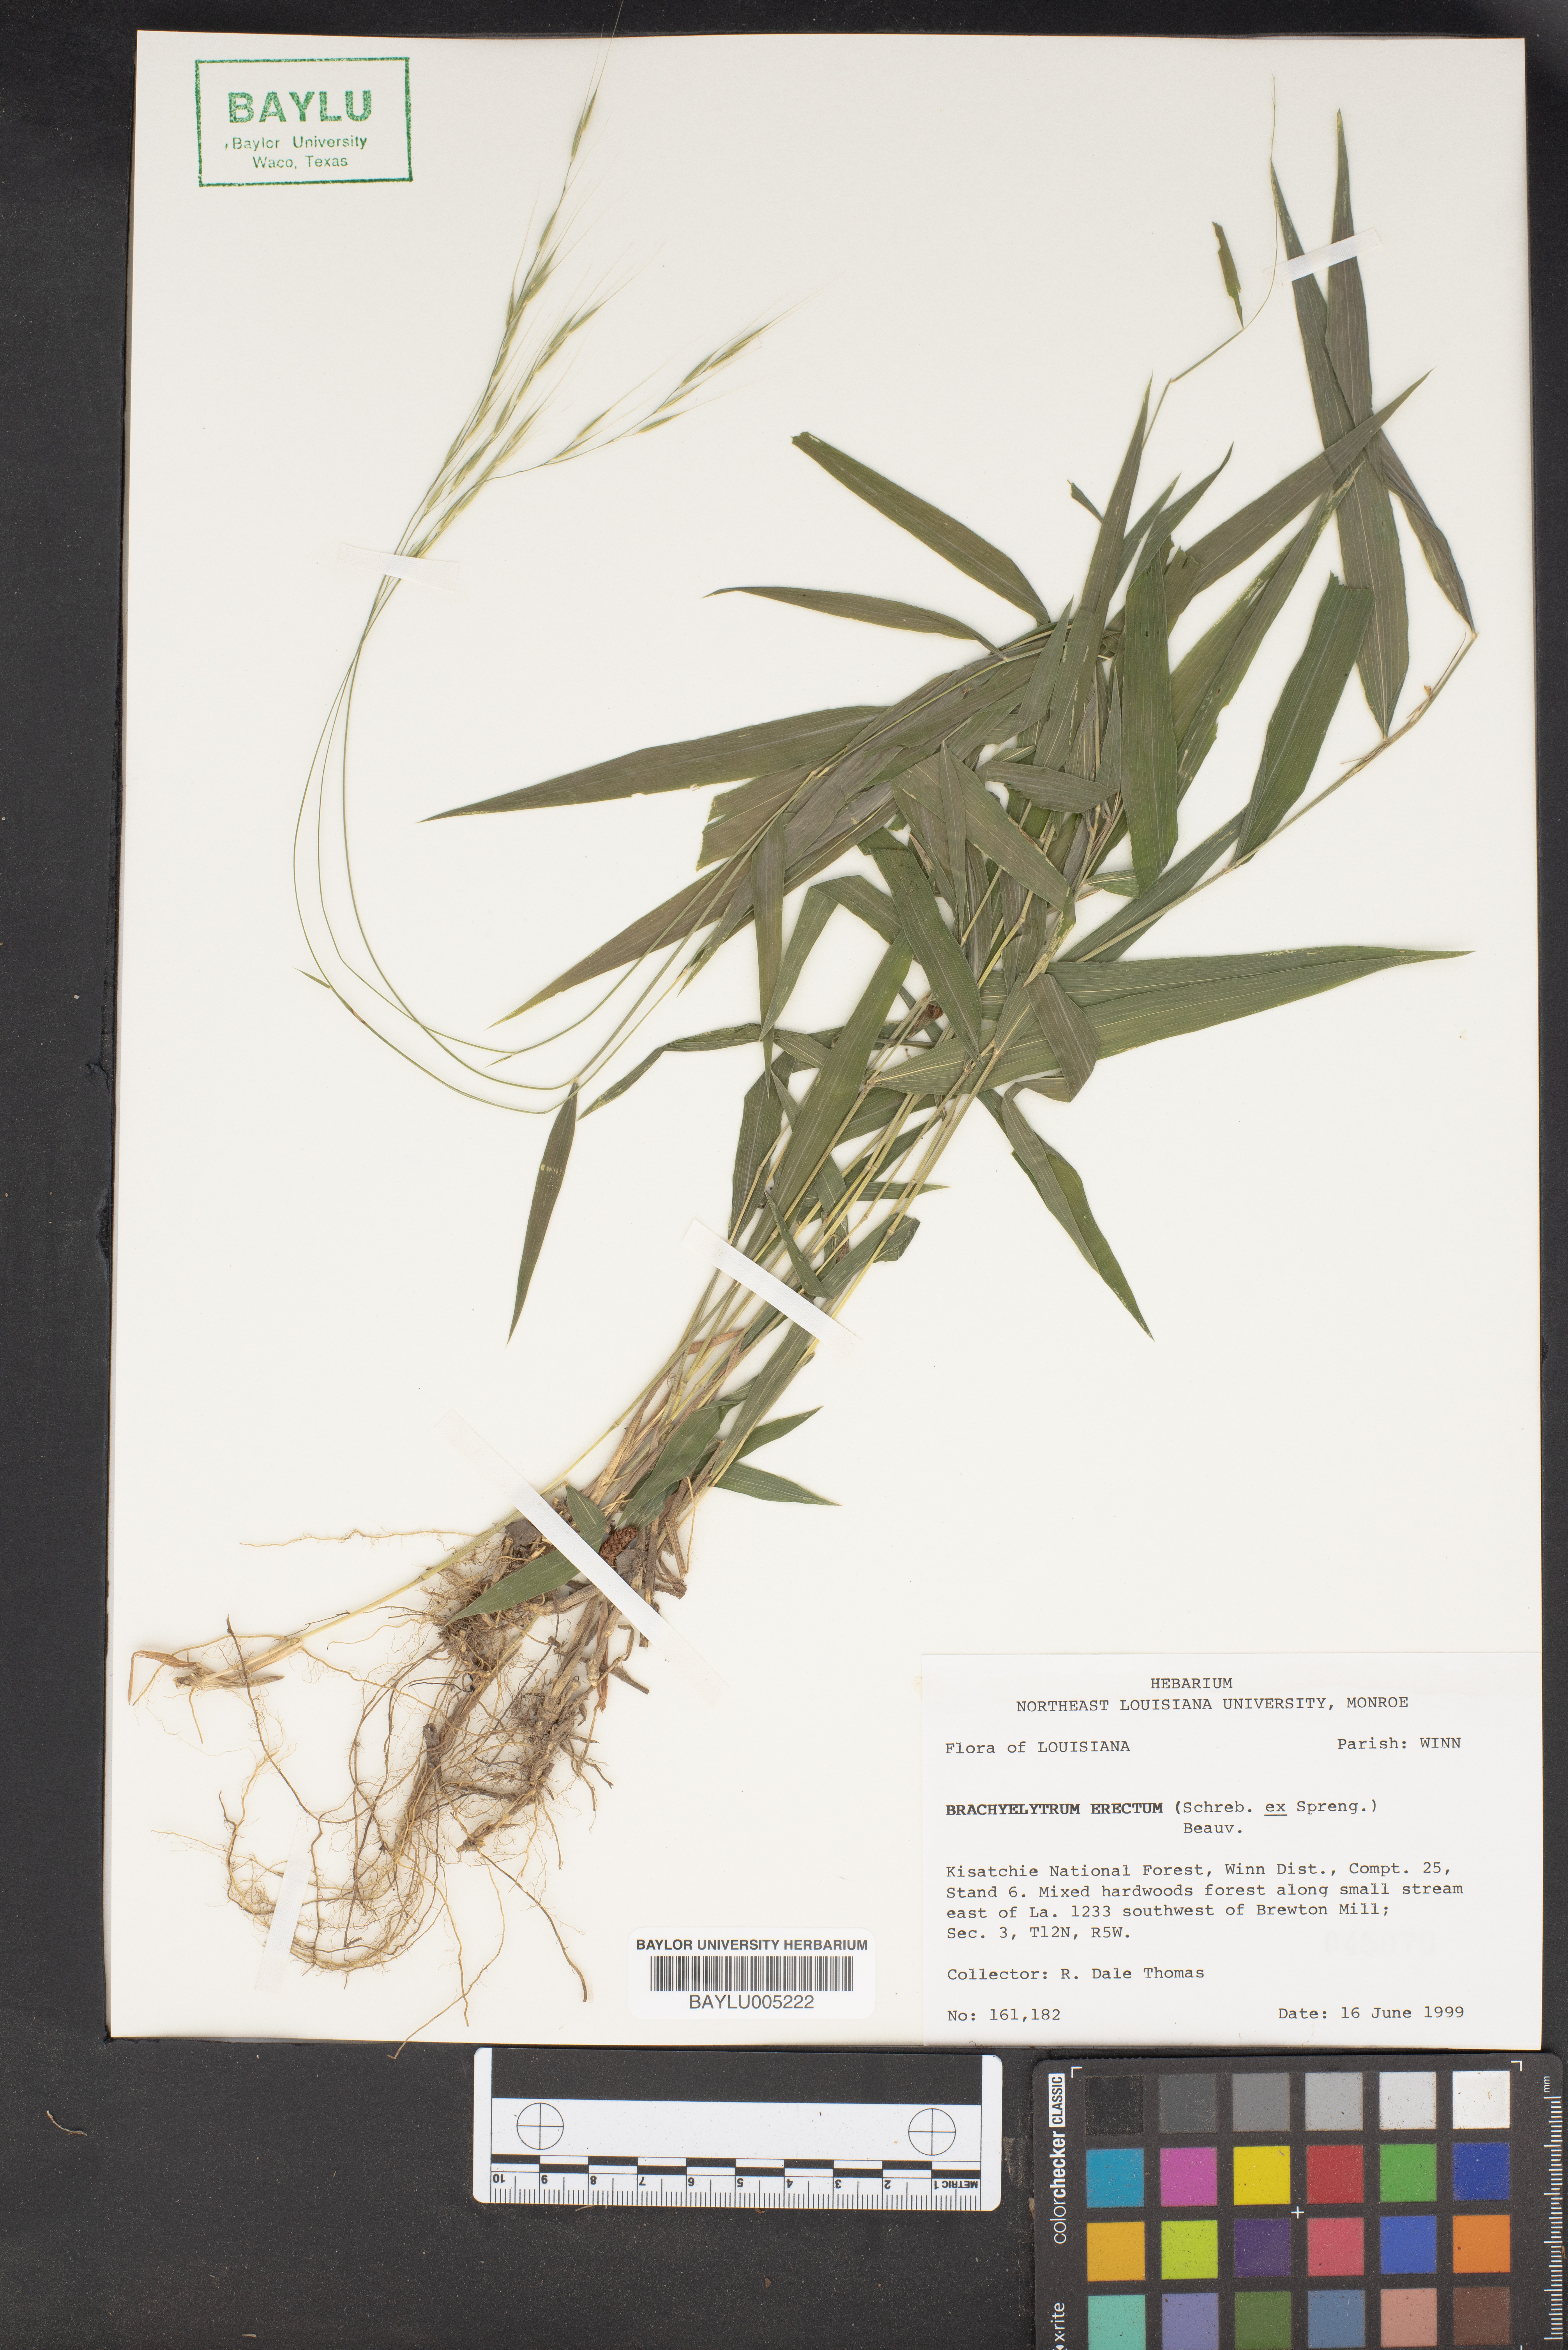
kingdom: Plantae
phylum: Tracheophyta
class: Liliopsida
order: Poales
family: Poaceae
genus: Brachyelytrum
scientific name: Brachyelytrum erectum
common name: Bearded shorthusk
